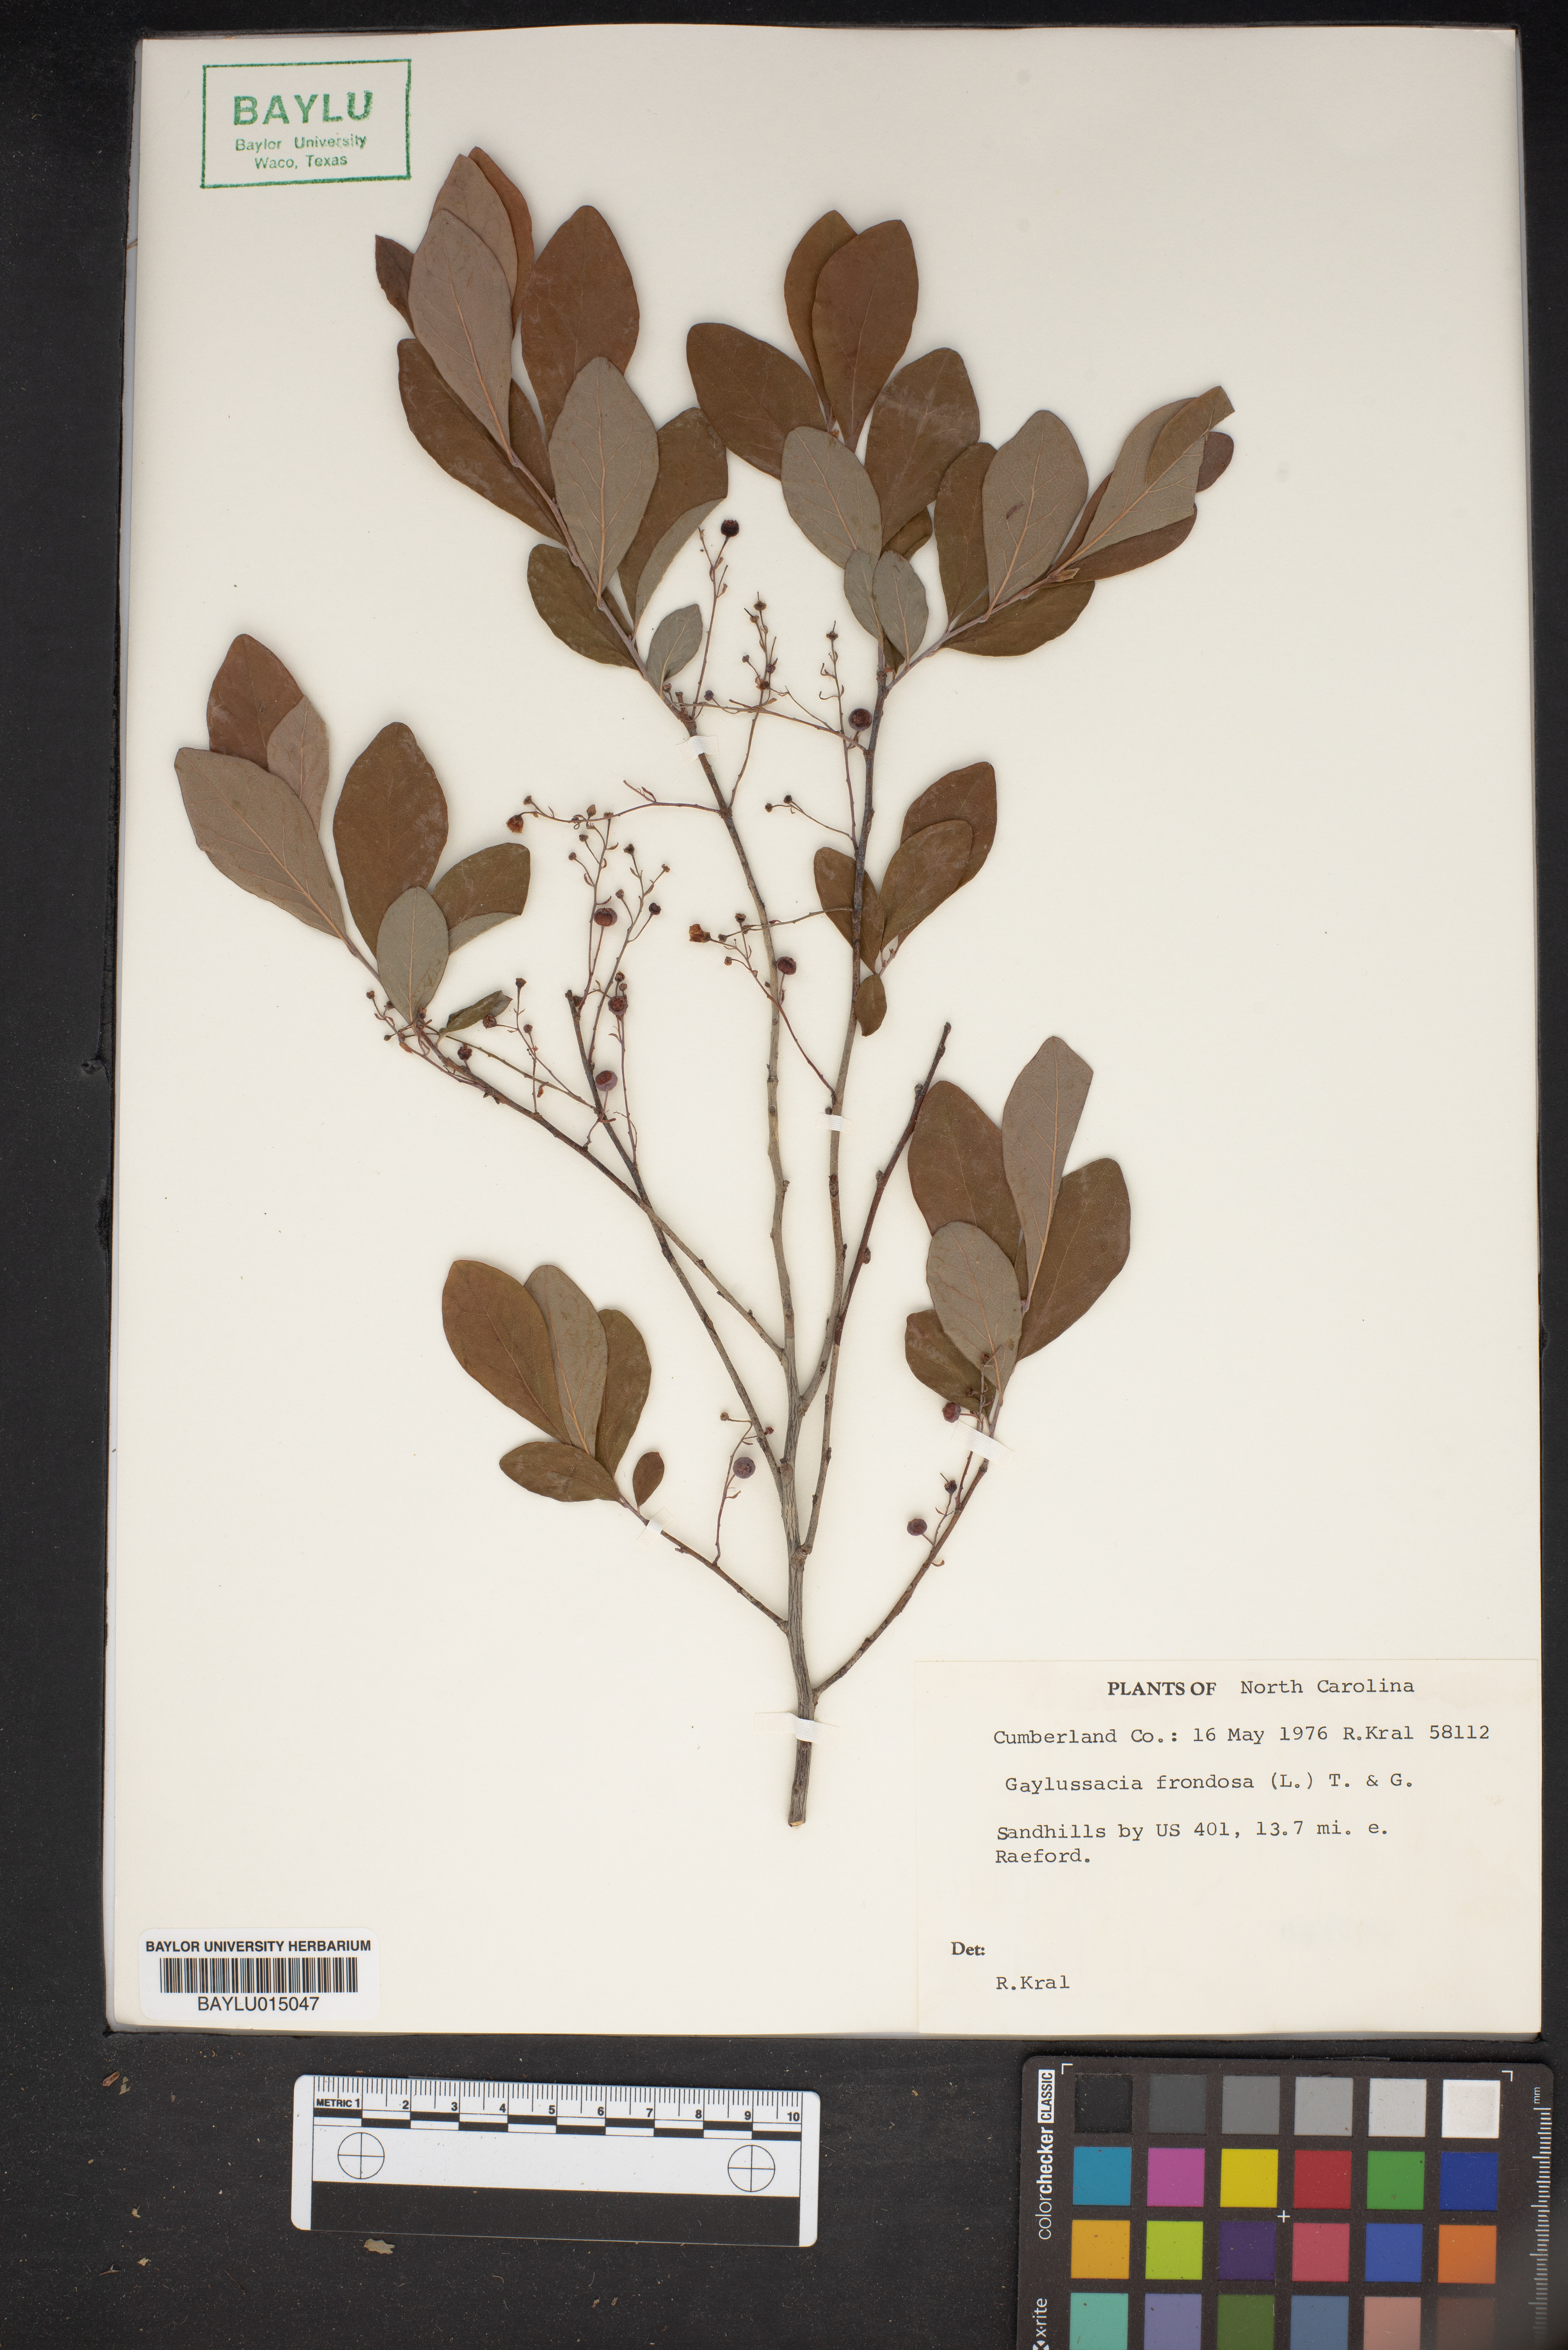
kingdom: Plantae
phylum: Tracheophyta
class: Magnoliopsida
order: Ericales
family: Ericaceae
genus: Gaylussacia
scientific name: Gaylussacia frondosa
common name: Dangleberry
